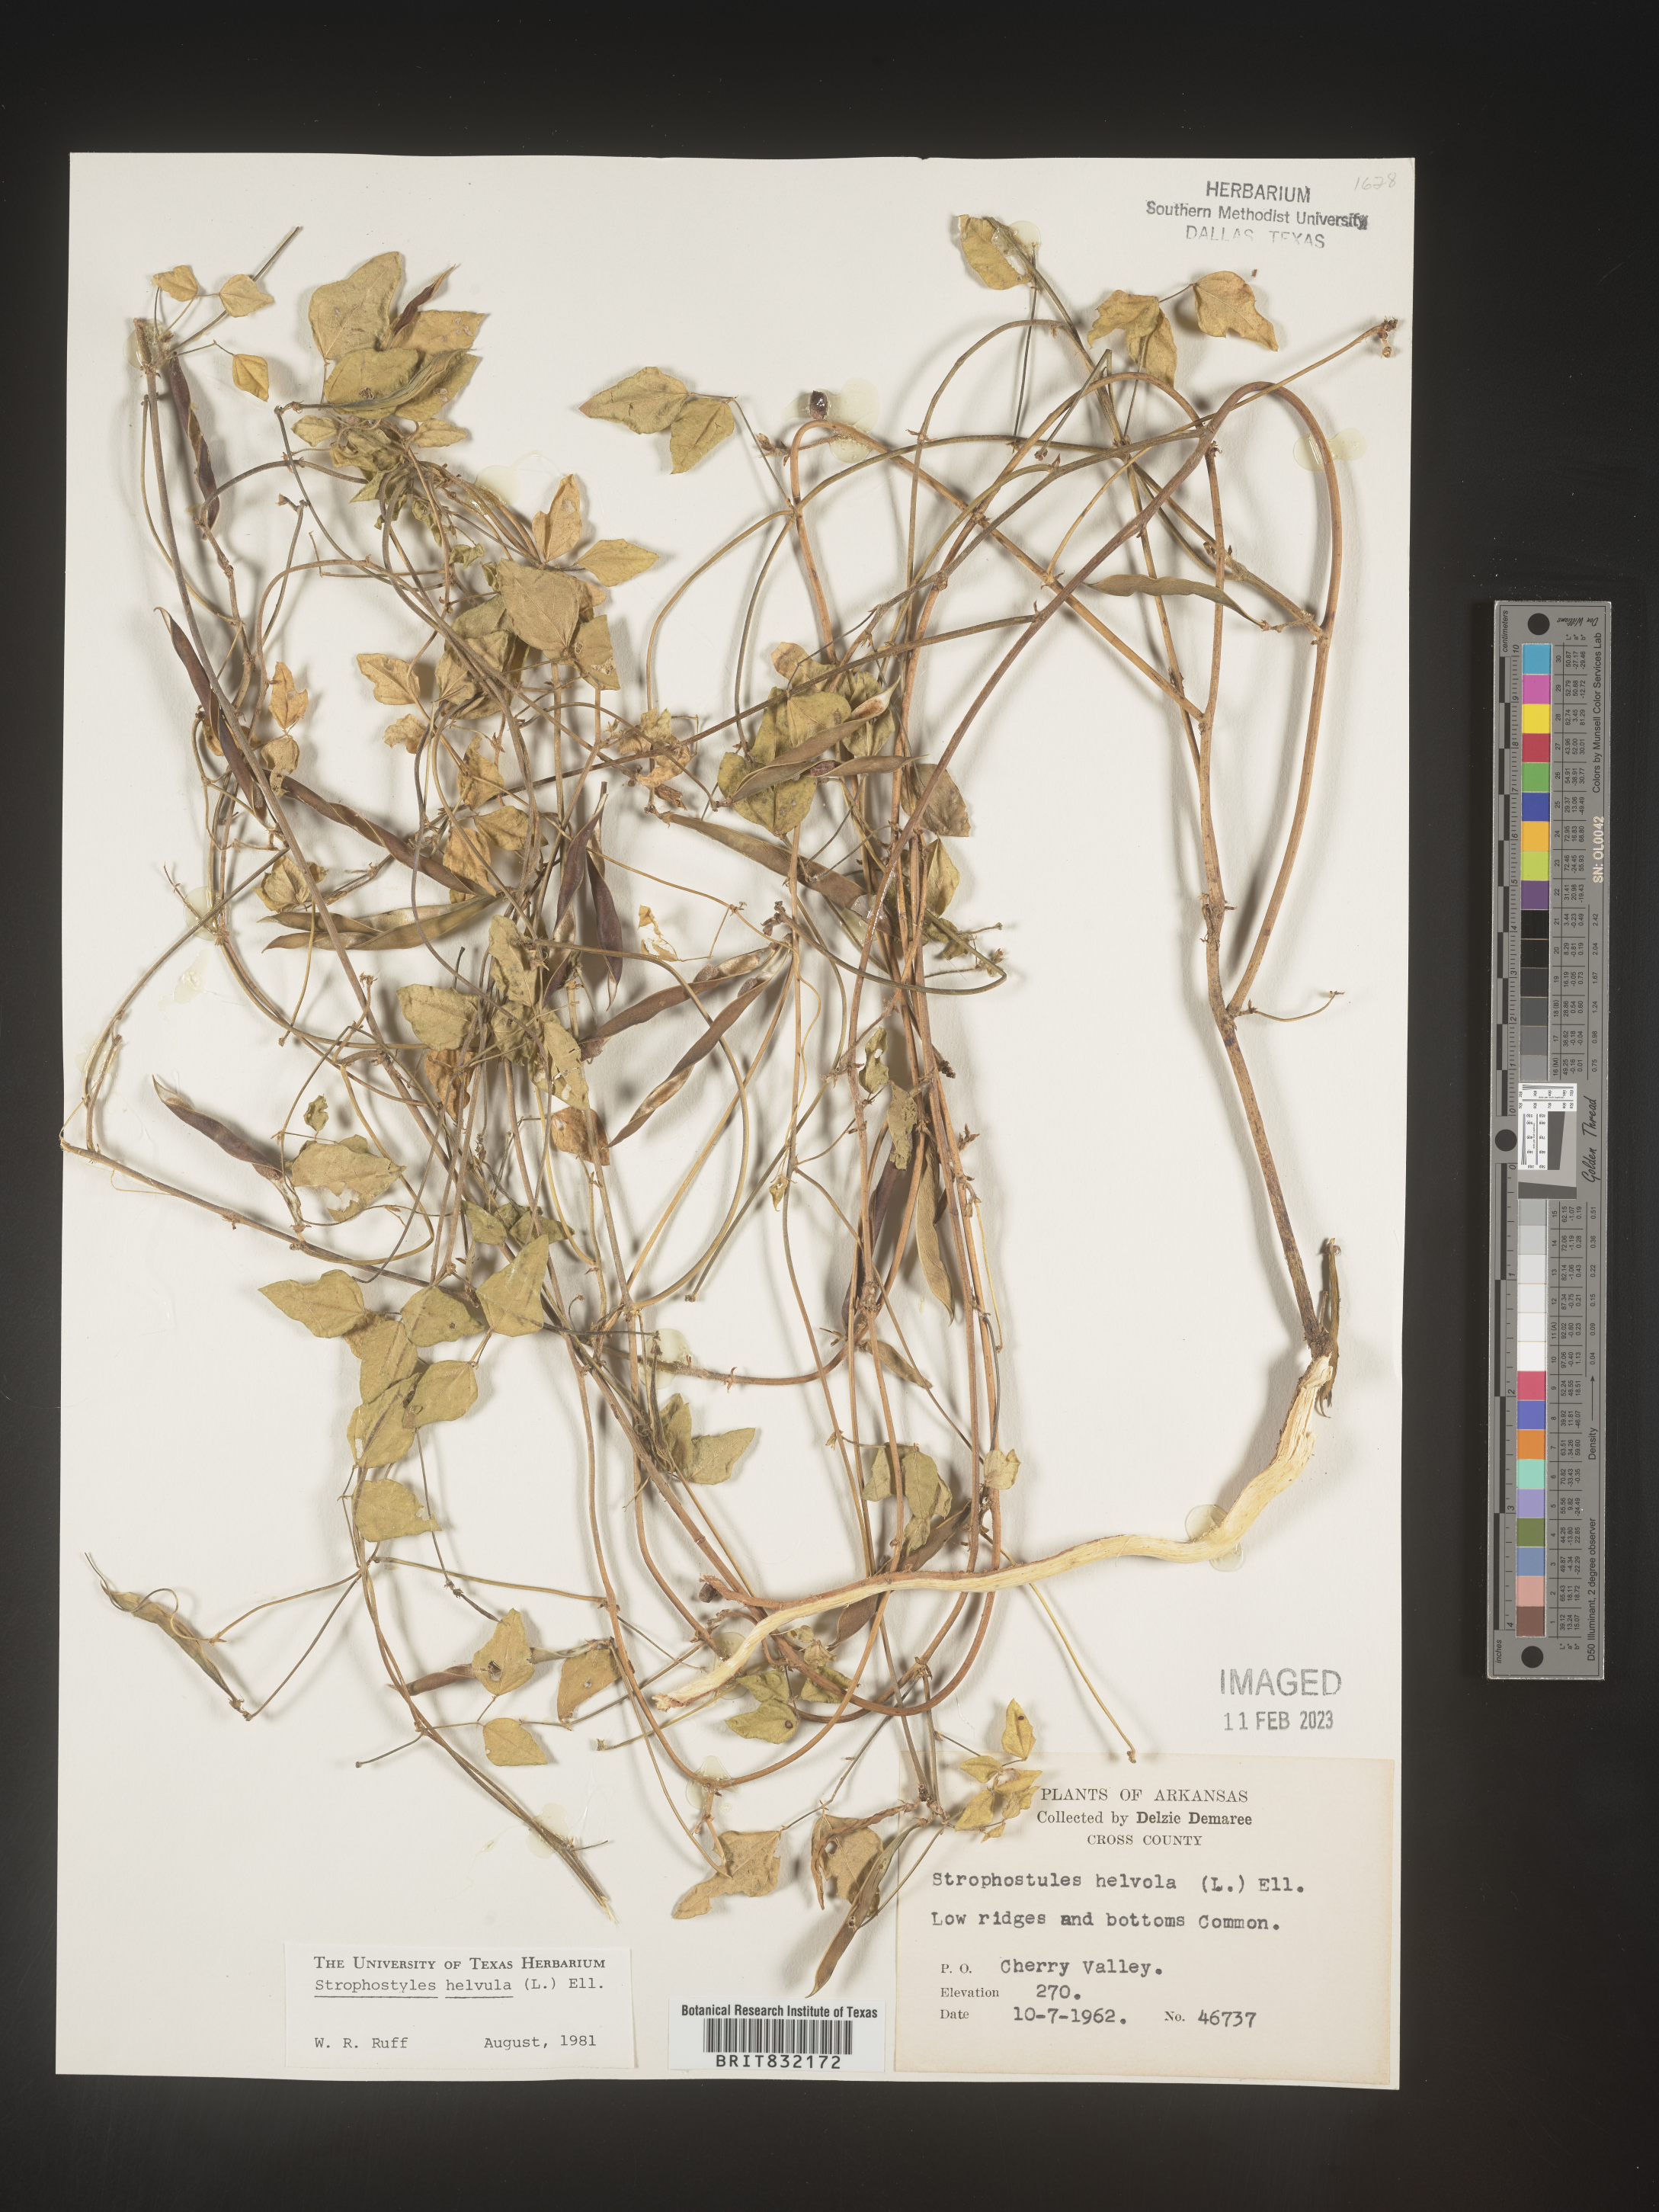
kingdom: Plantae
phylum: Tracheophyta
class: Magnoliopsida
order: Fabales
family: Fabaceae
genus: Strophostyles
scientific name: Strophostyles helvola
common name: Trailing wild bean
